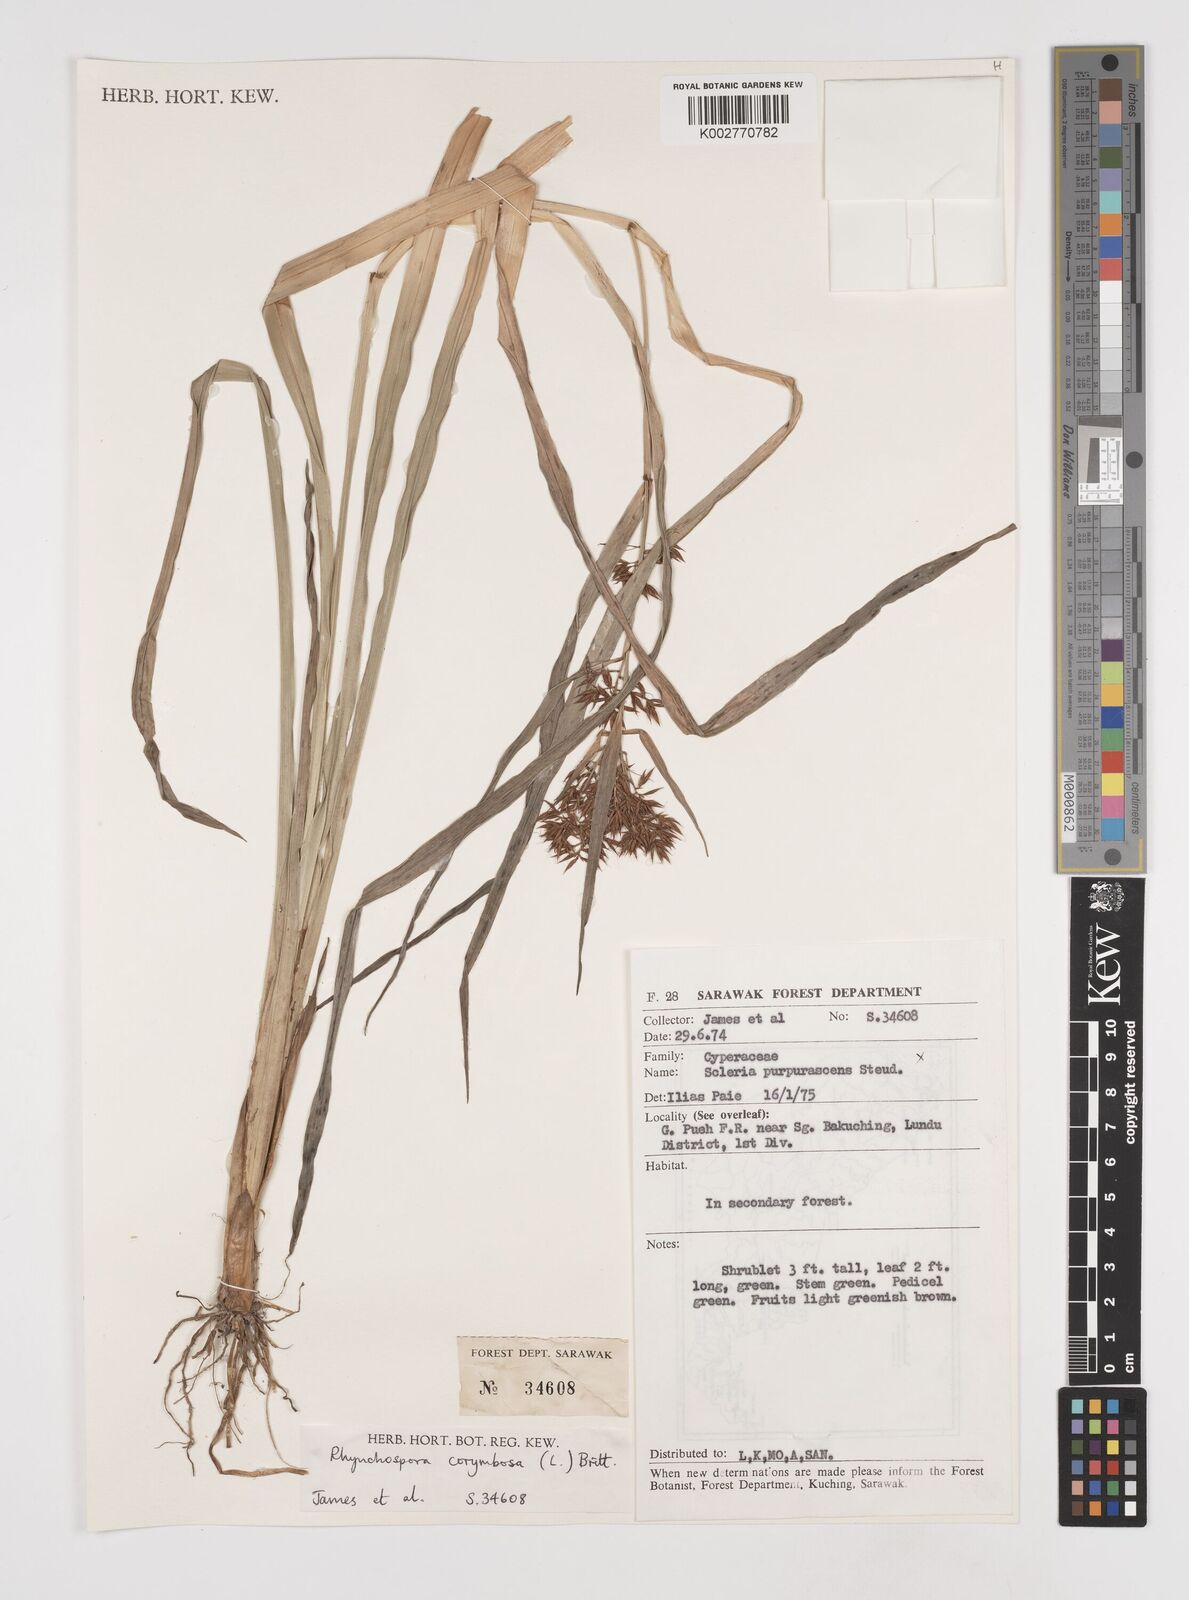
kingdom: Plantae
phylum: Tracheophyta
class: Liliopsida
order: Poales
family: Cyperaceae
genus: Rhynchospora
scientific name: Rhynchospora corymbosa
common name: Golden beak sedge
